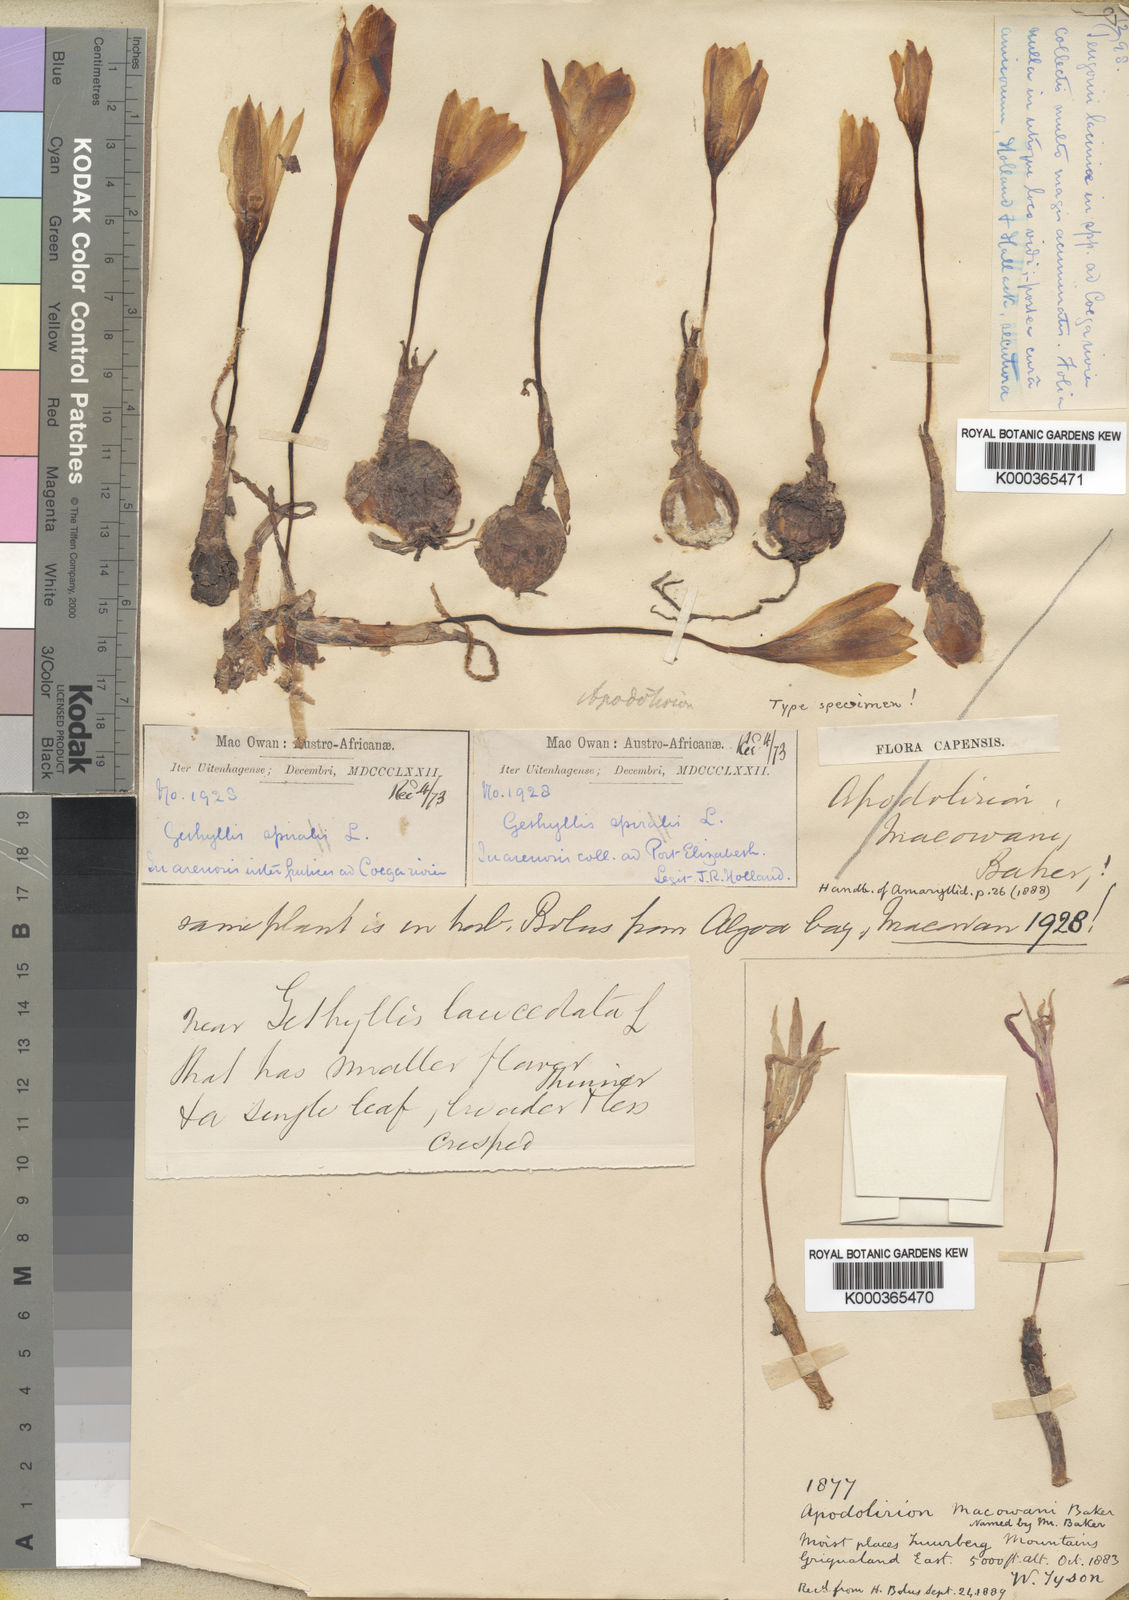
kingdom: Plantae
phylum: Tracheophyta
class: Liliopsida
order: Asparagales
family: Amaryllidaceae
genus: Apodolirion
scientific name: Apodolirion macowanii
